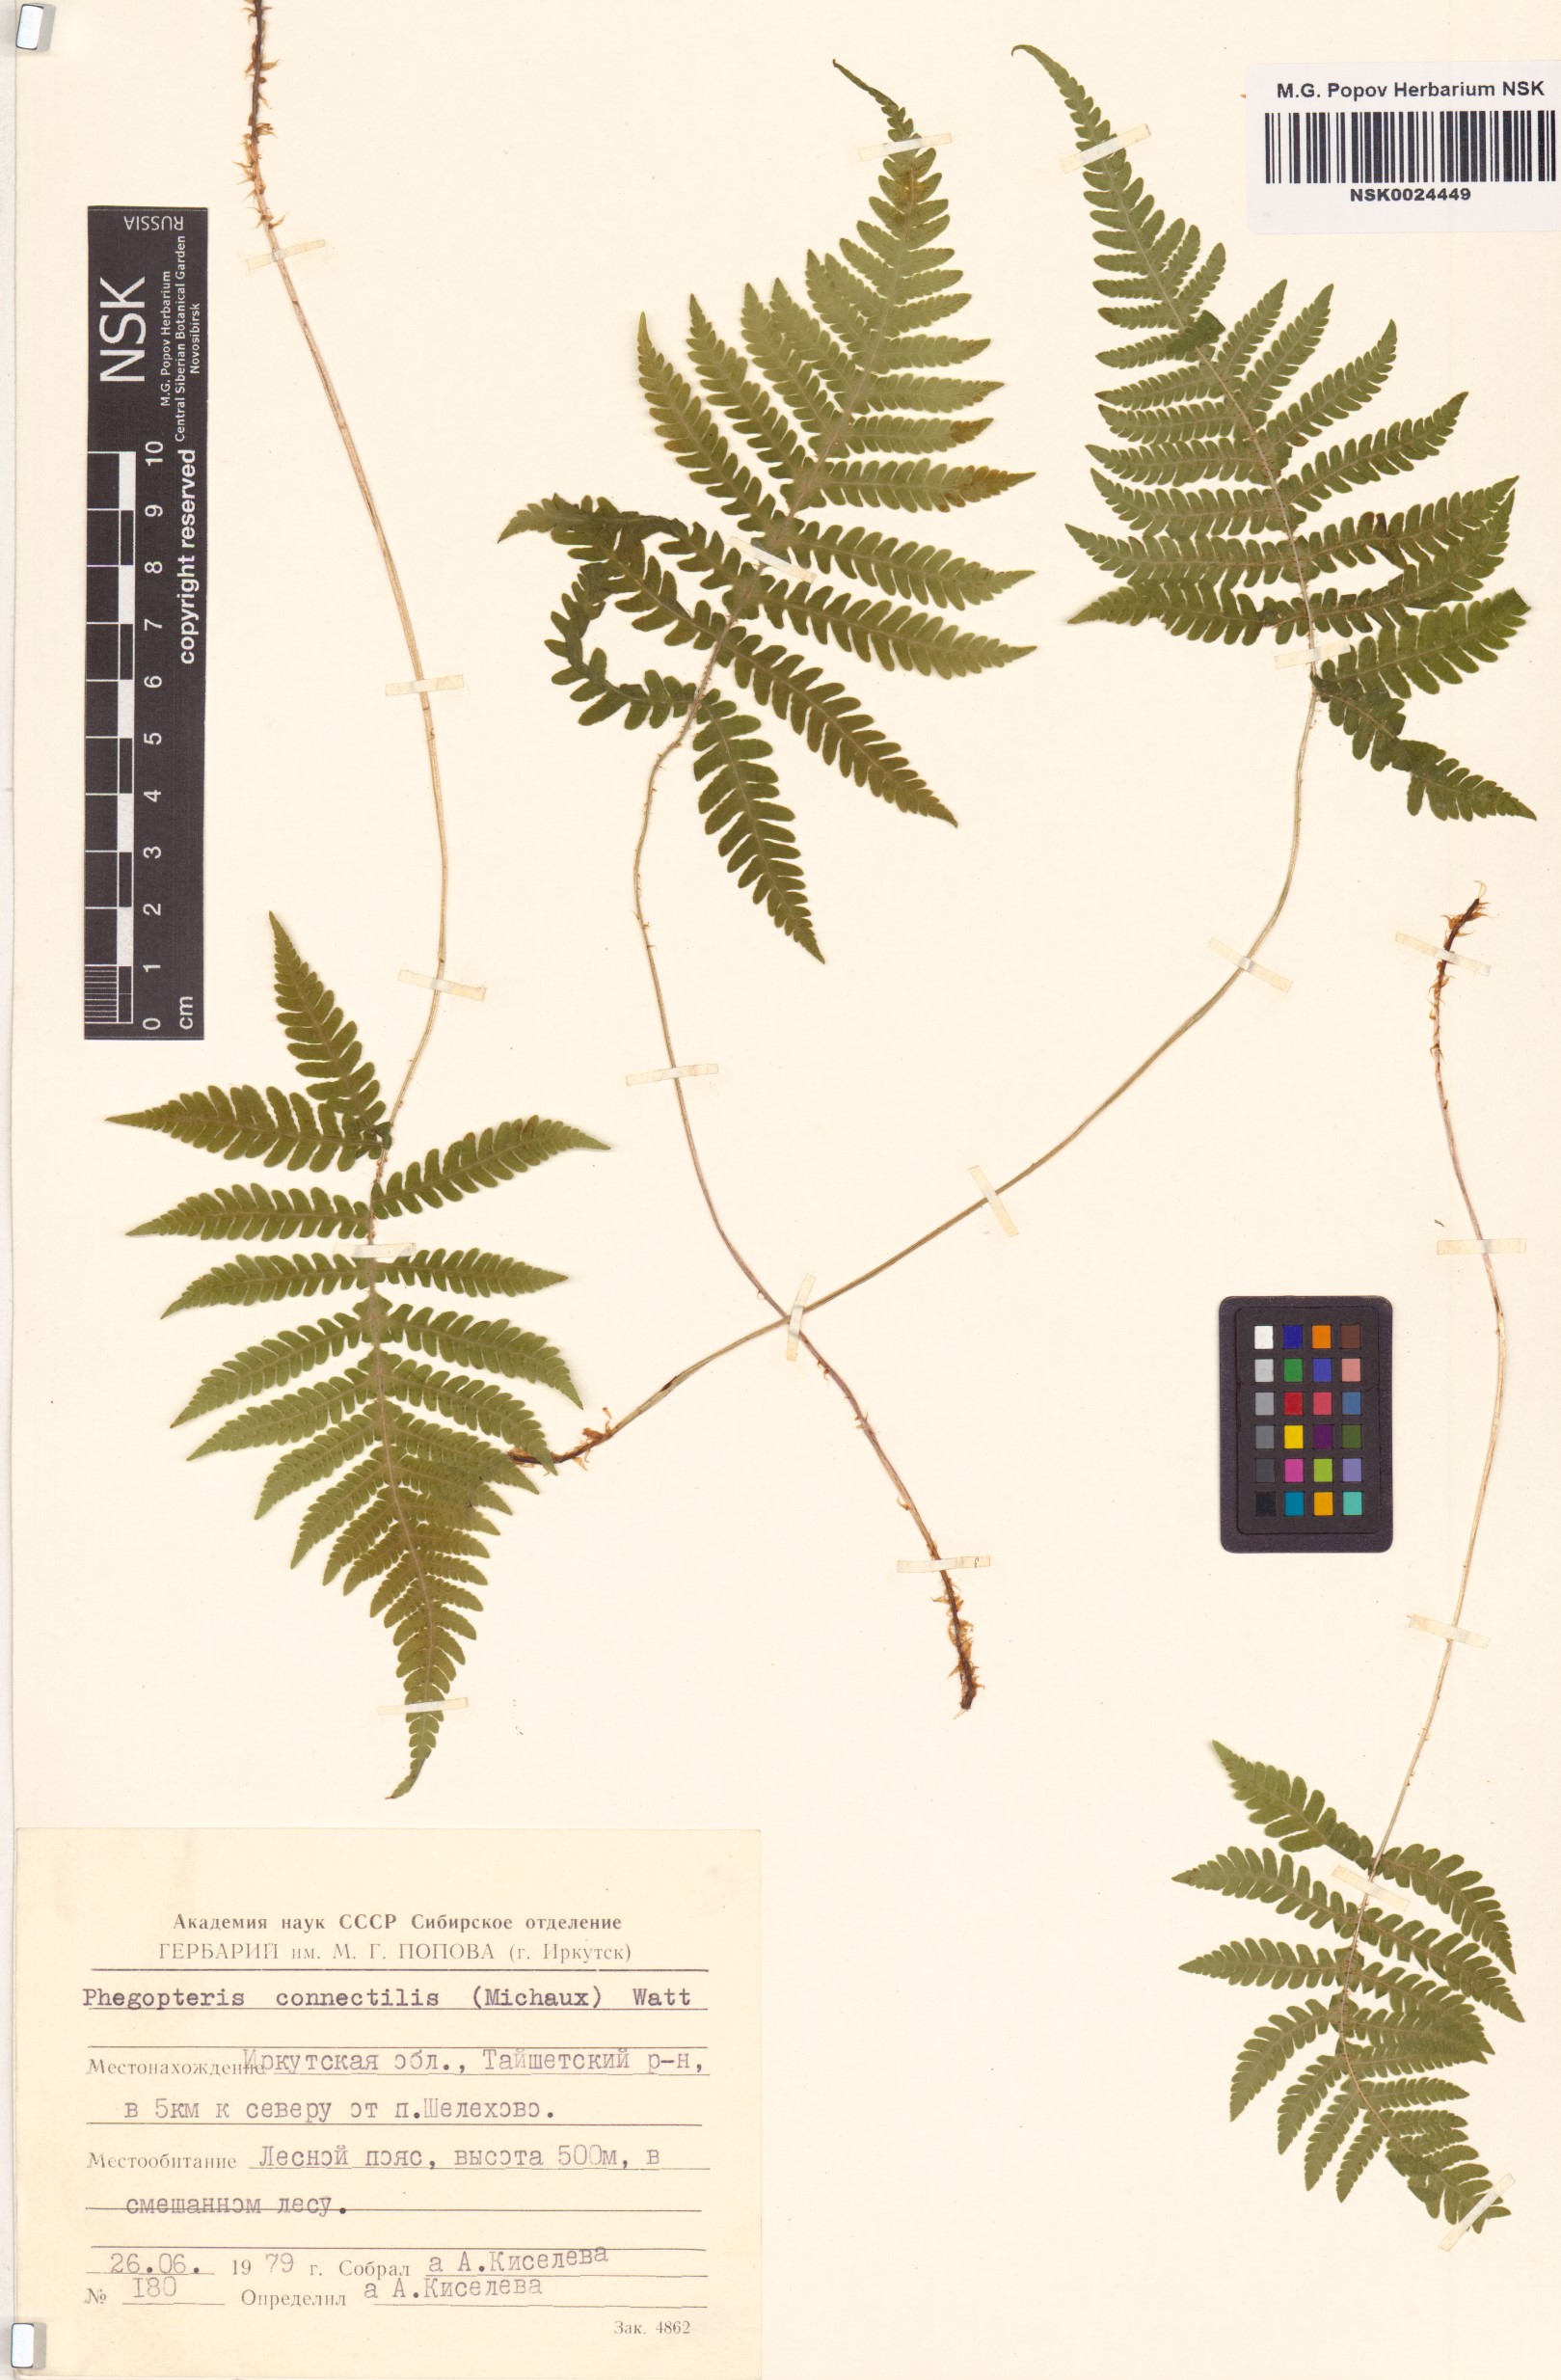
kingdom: Plantae
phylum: Tracheophyta
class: Polypodiopsida
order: Polypodiales
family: Thelypteridaceae
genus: Phegopteris
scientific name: Phegopteris connectilis
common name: Beech fern
